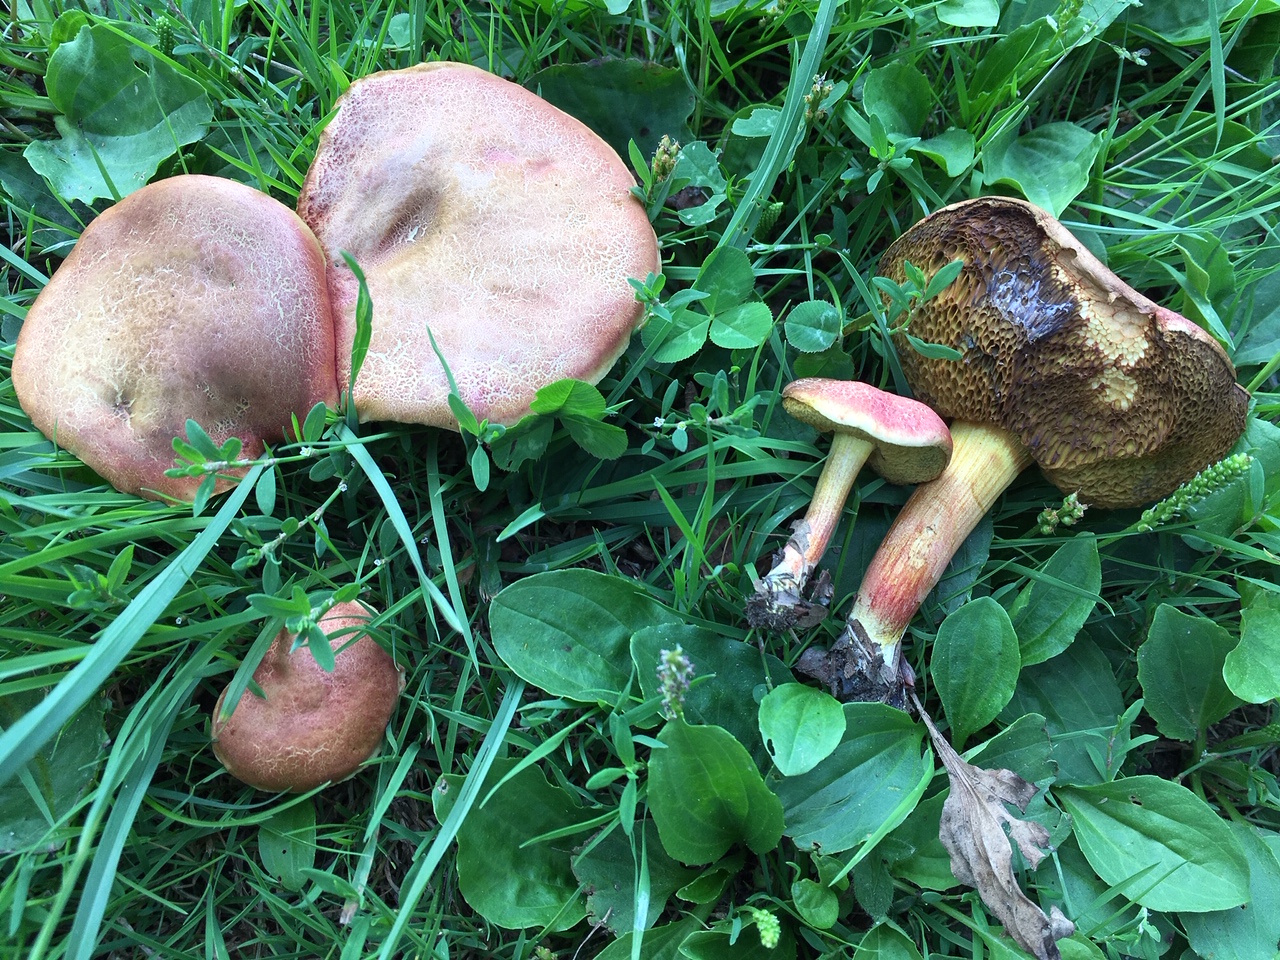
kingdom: Fungi
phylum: Basidiomycota
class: Agaricomycetes
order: Boletales
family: Boletaceae
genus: Hortiboletus
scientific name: Hortiboletus rubellus
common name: blodrød rørhat
